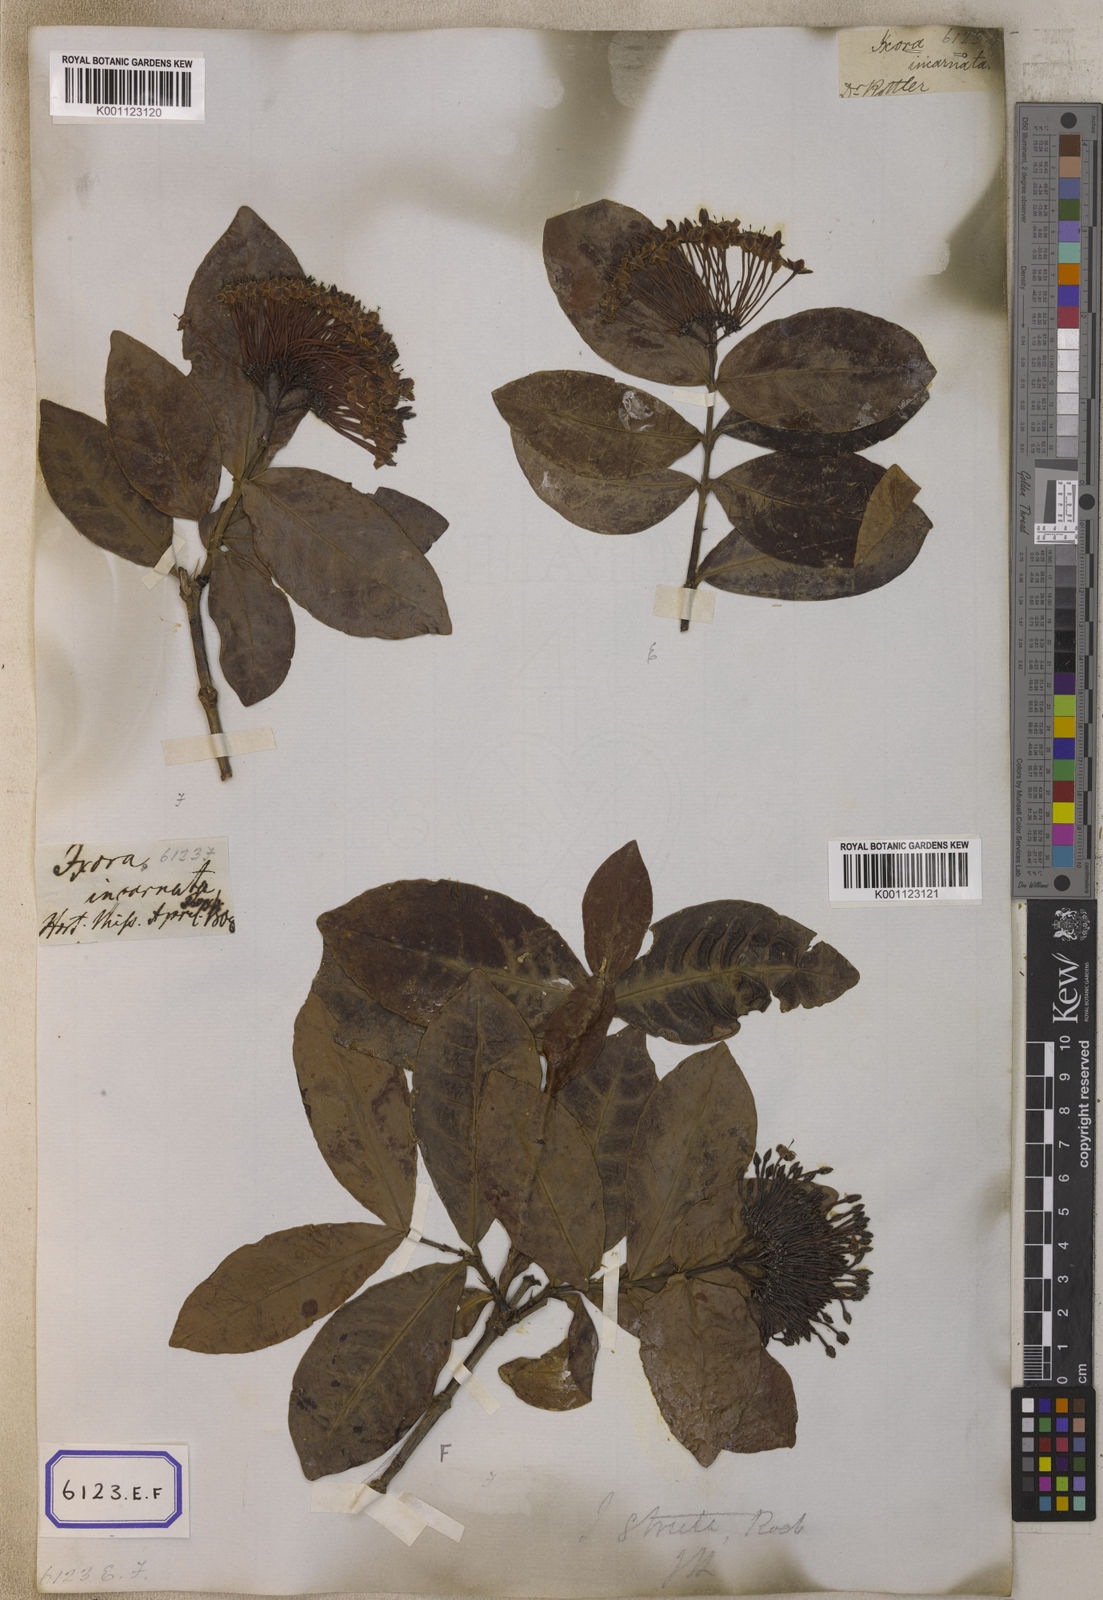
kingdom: Plantae
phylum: Tracheophyta
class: Magnoliopsida
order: Gentianales
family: Rubiaceae
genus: Ixora
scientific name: Ixora
